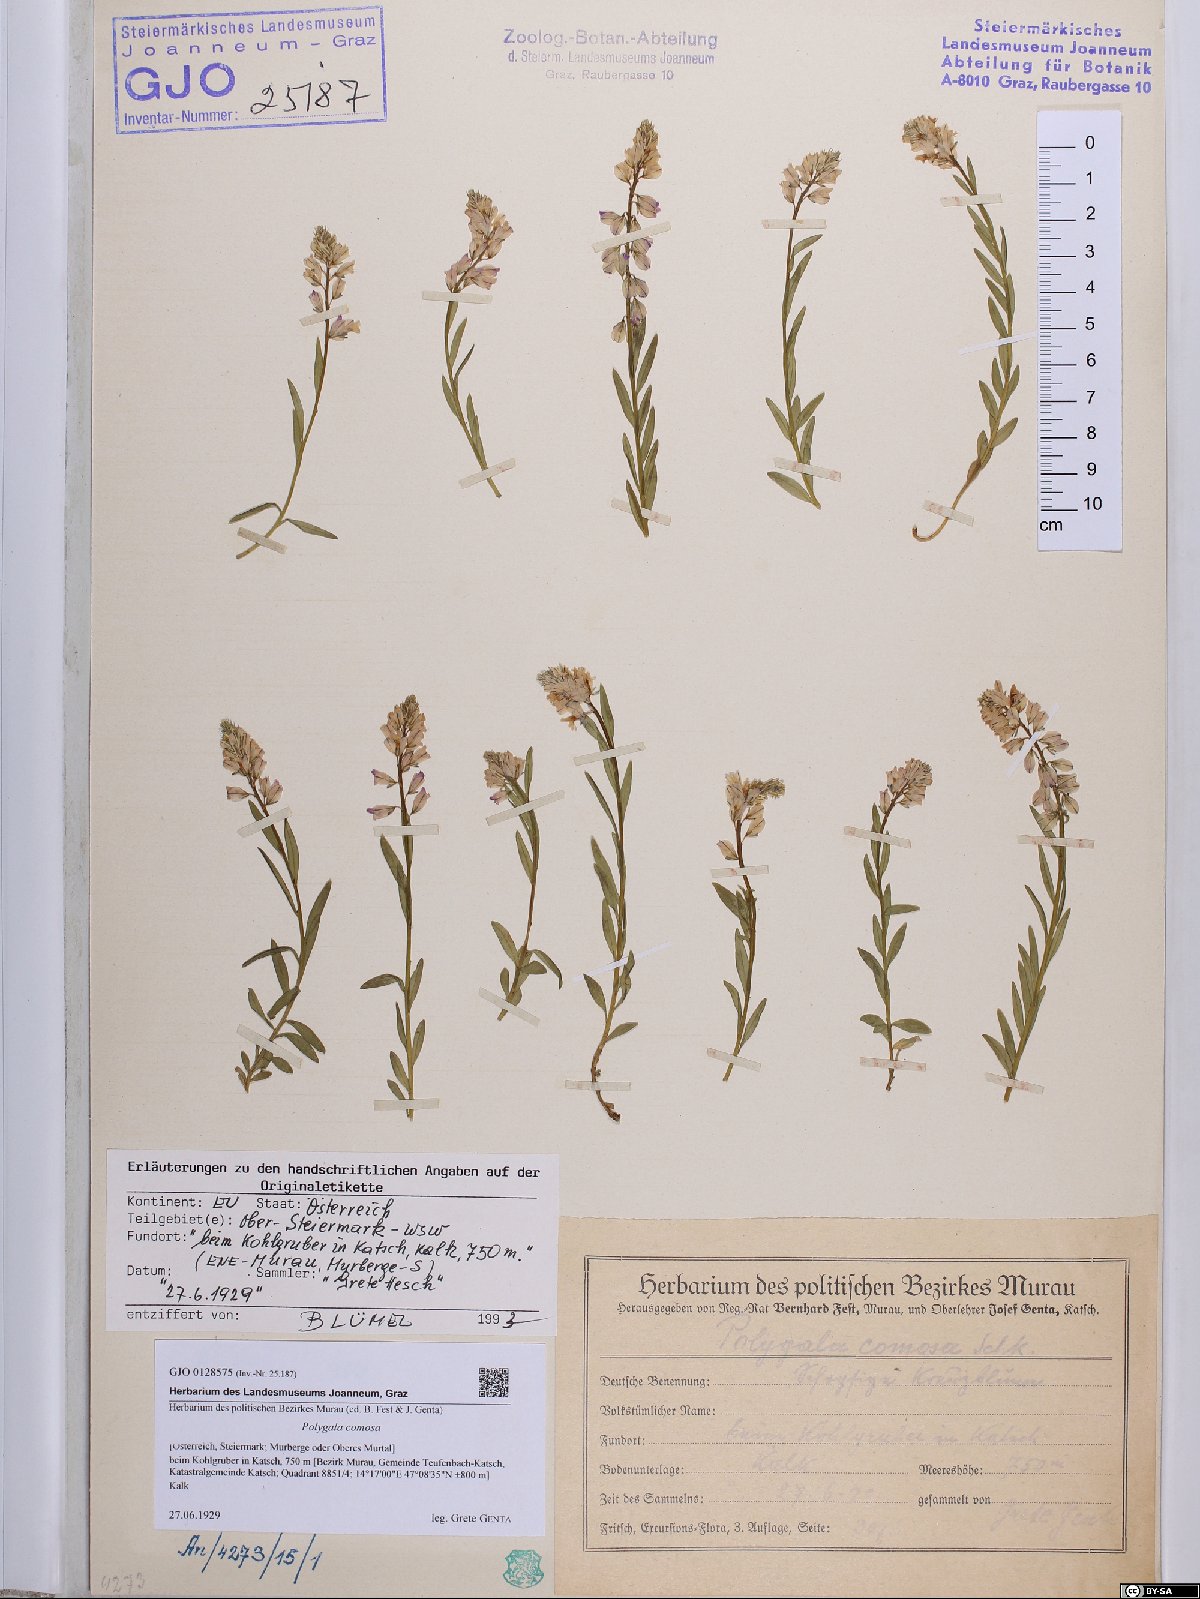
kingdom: Plantae
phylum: Tracheophyta
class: Magnoliopsida
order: Fabales
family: Polygalaceae
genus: Polygala
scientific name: Polygala comosa
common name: Tufted milkwort
